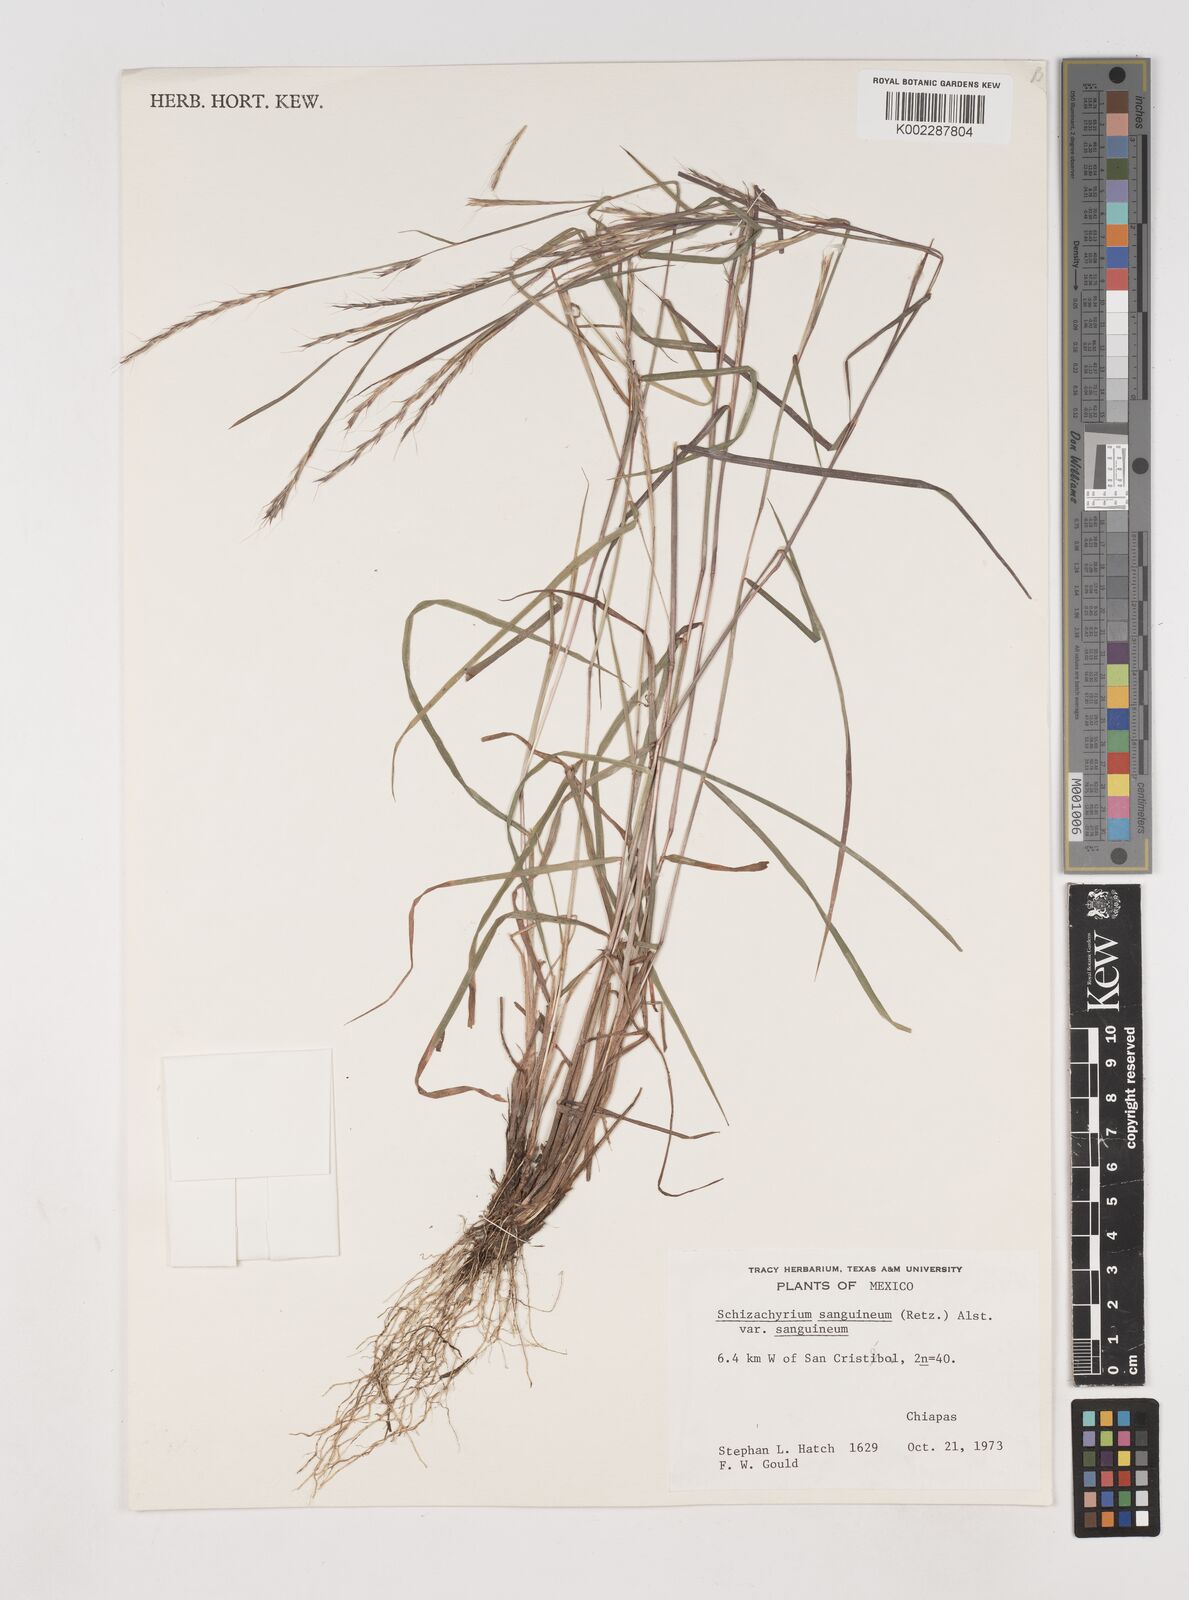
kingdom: Plantae
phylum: Tracheophyta
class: Liliopsida
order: Poales
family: Poaceae
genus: Schizachyrium
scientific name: Schizachyrium sanguineum
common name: Crimson bluestem
